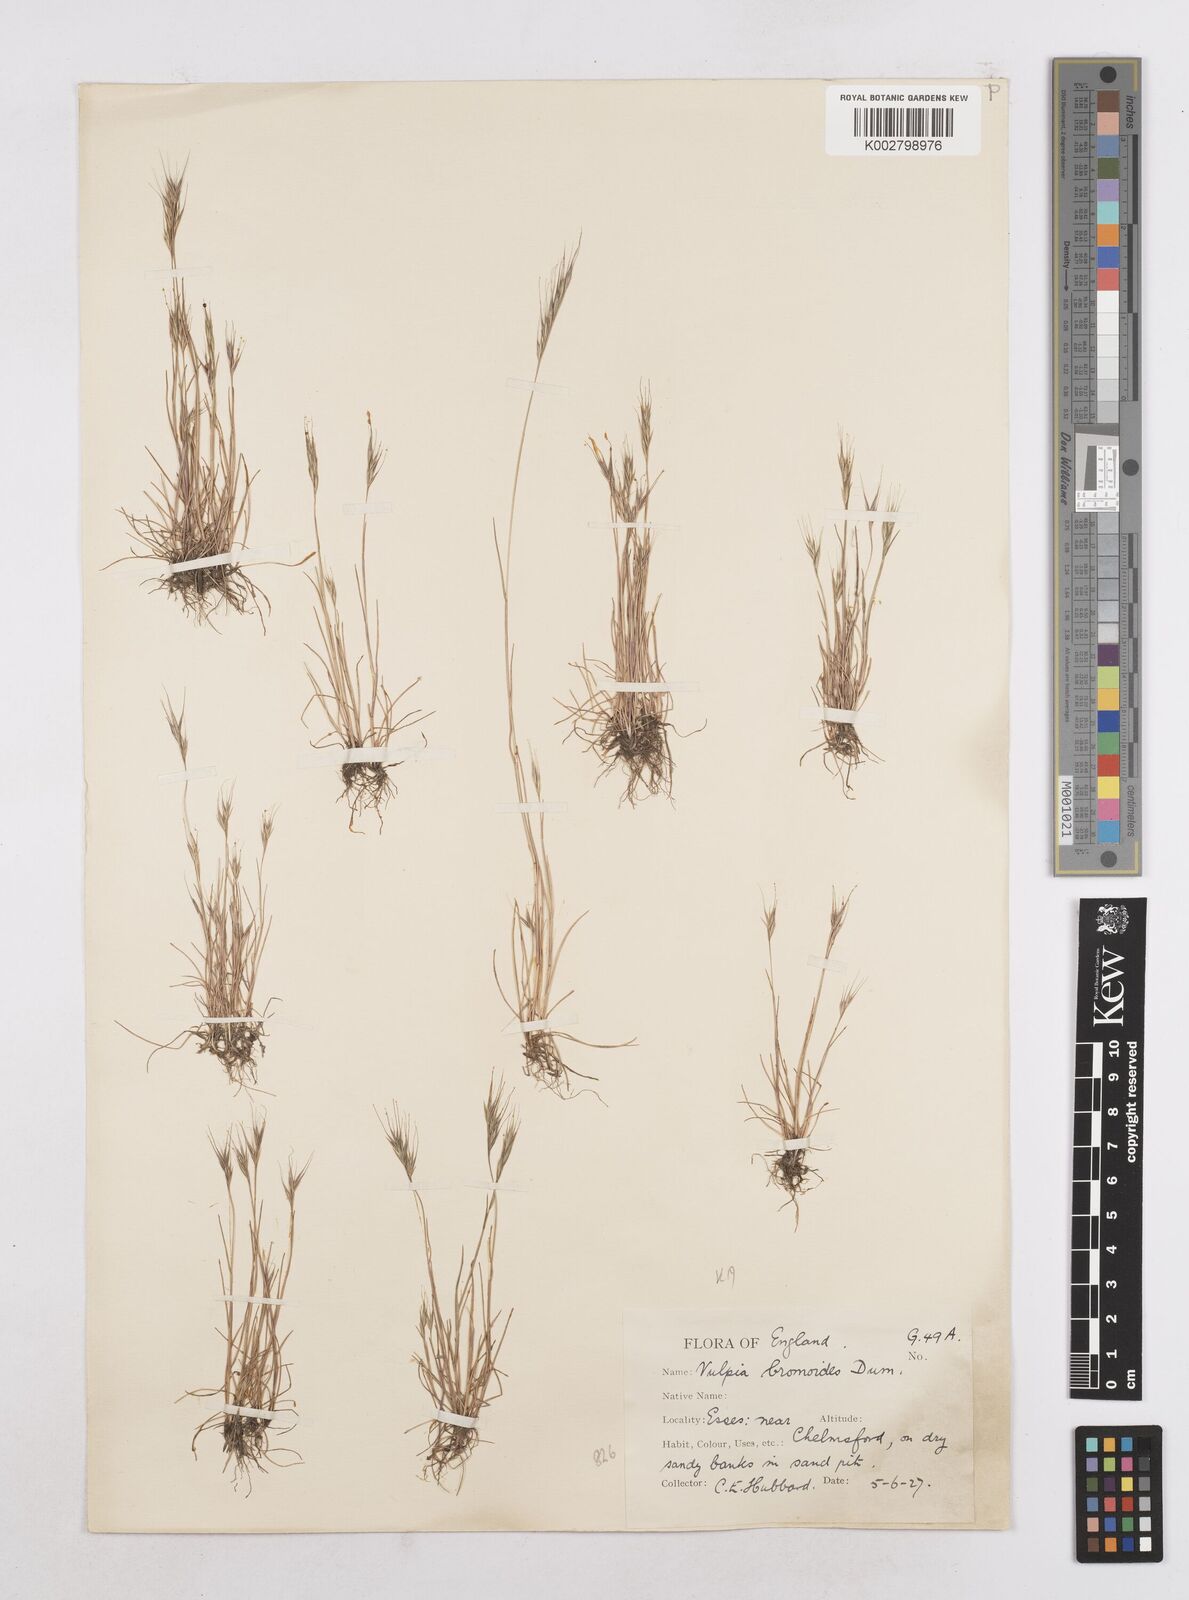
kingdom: Plantae
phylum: Tracheophyta
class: Liliopsida
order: Poales
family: Poaceae
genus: Festuca
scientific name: Festuca bromoides
